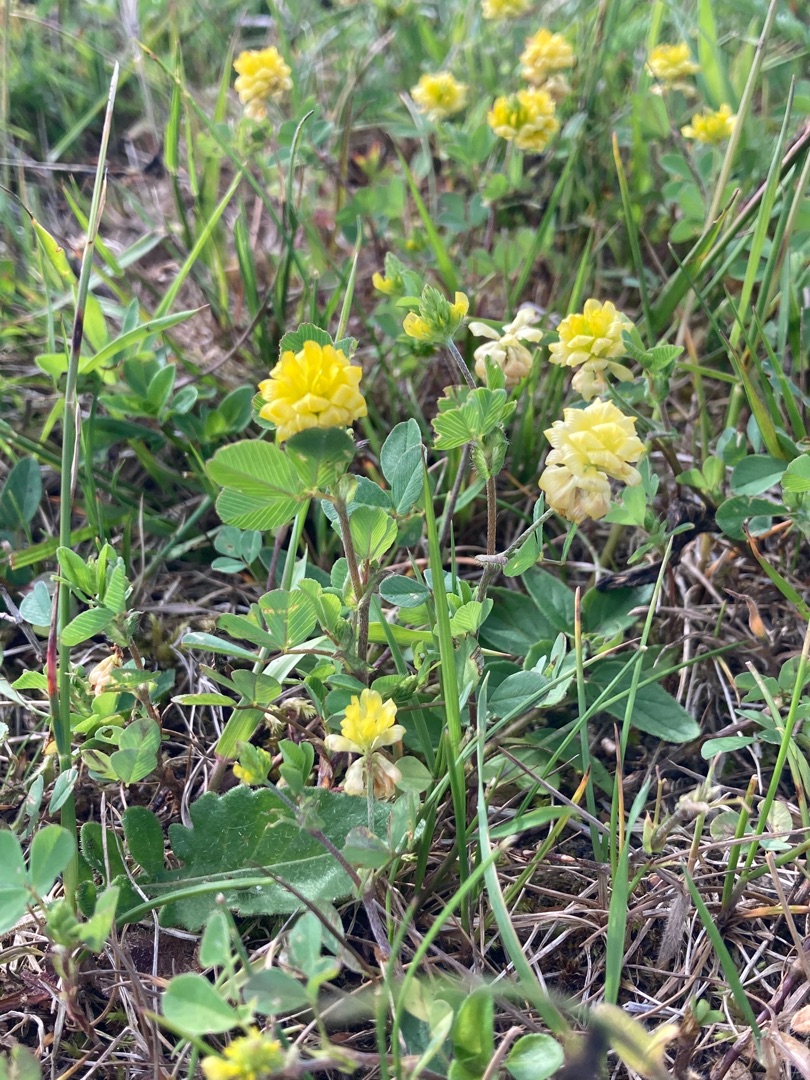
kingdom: Plantae
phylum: Tracheophyta
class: Magnoliopsida
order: Fabales
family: Fabaceae
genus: Trifolium
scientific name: Trifolium campestre
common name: Gul kløver
